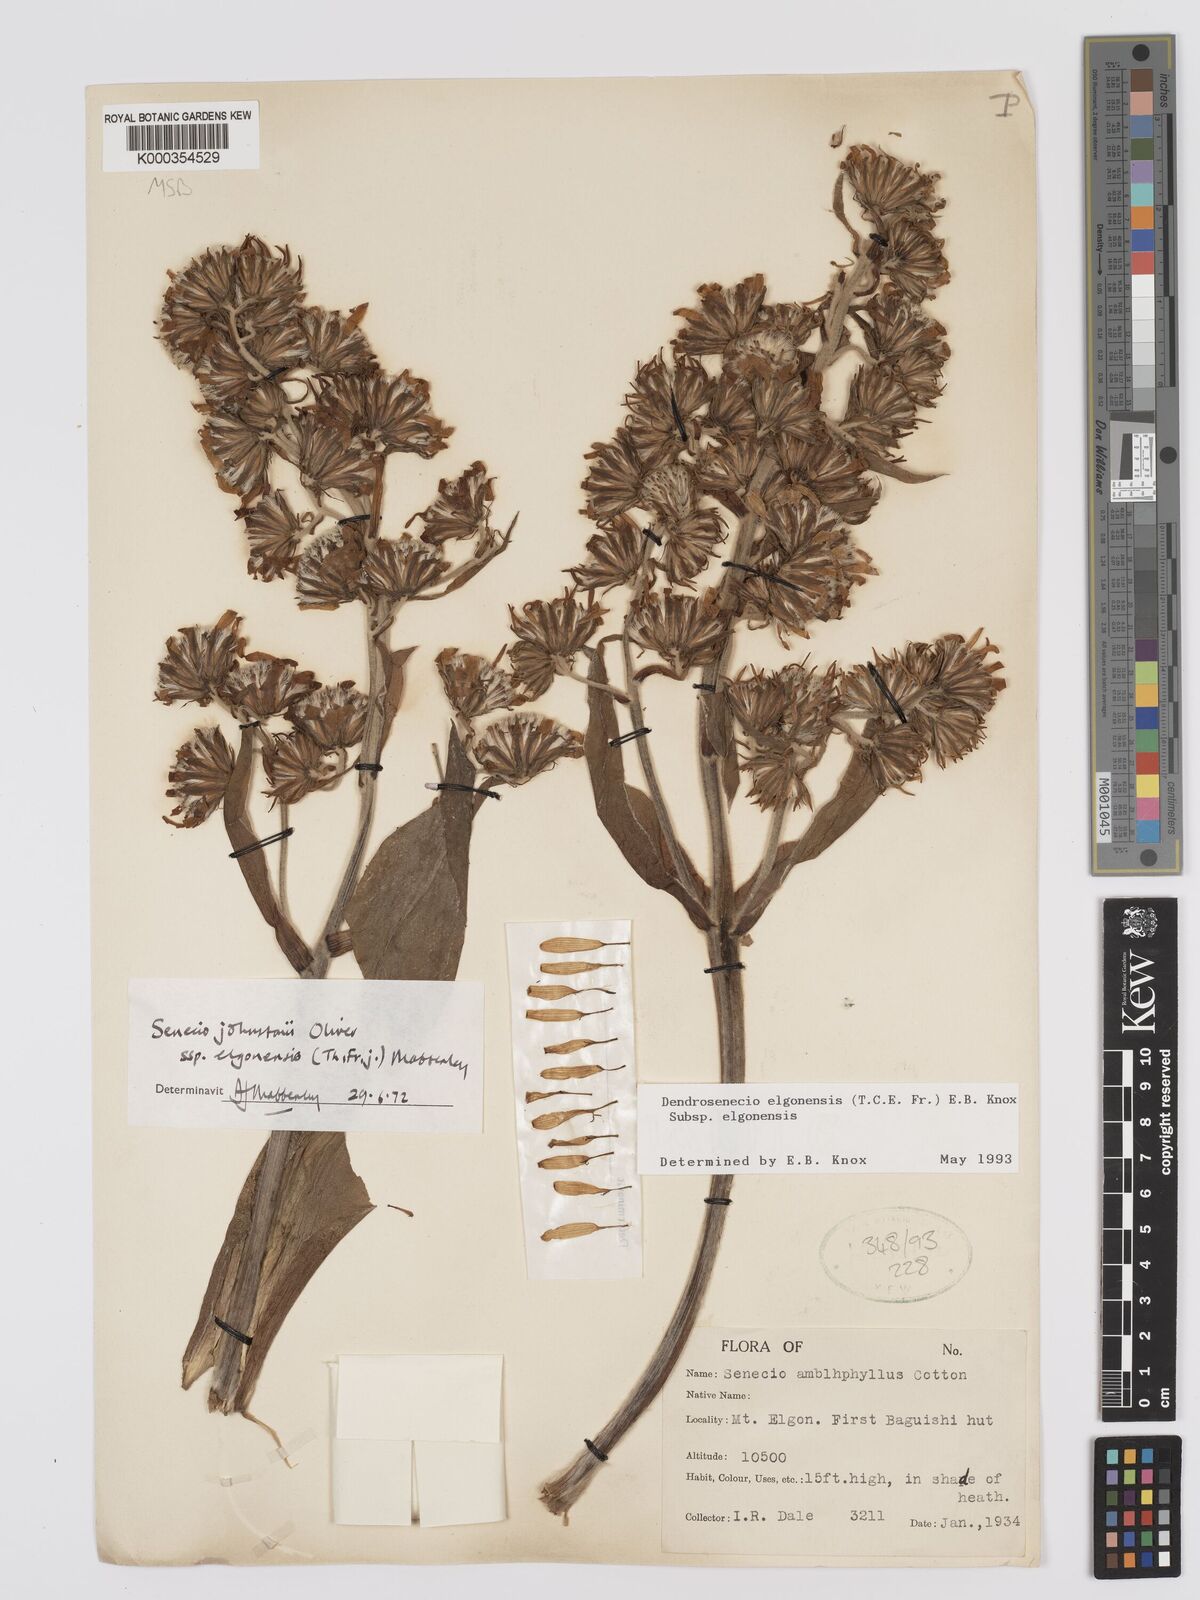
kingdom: Plantae
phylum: Tracheophyta
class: Magnoliopsida
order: Asterales
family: Asteraceae
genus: Dendrosenecio
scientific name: Dendrosenecio elgonensis
